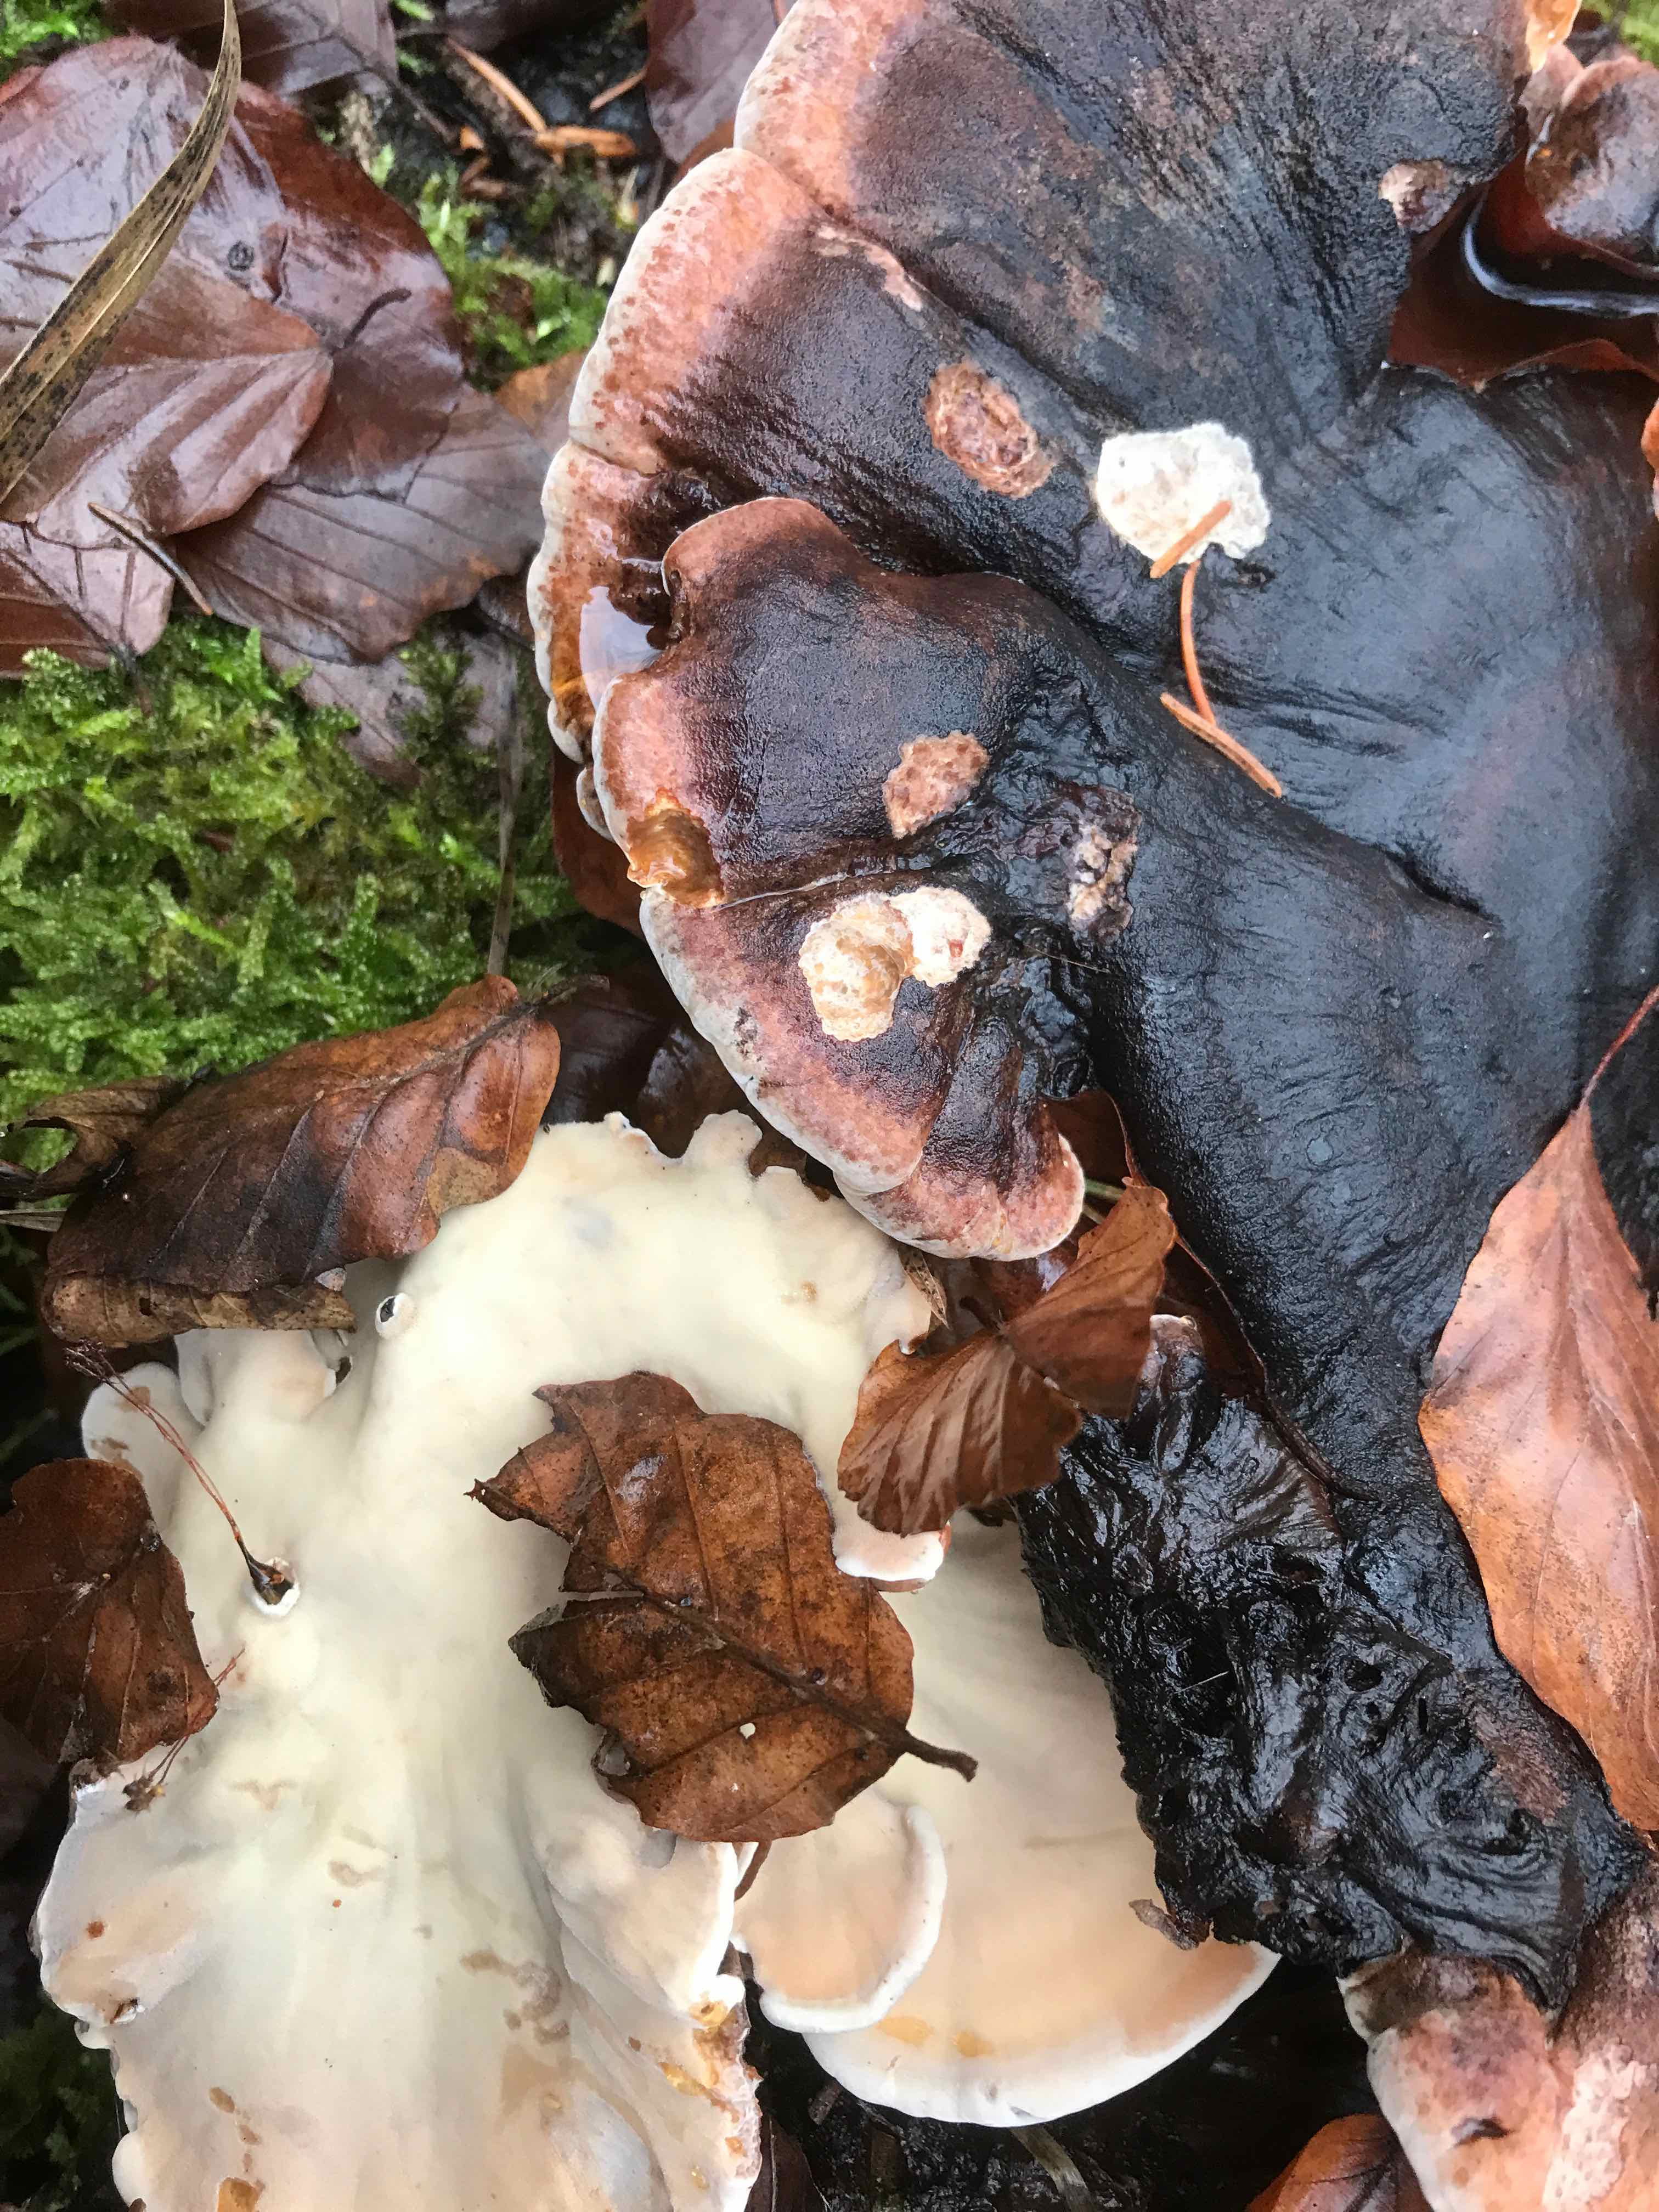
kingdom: Fungi
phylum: Basidiomycota
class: Agaricomycetes
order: Polyporales
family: Ischnodermataceae
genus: Ischnoderma
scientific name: Ischnoderma resinosum
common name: løv-tjæreporesvamp
